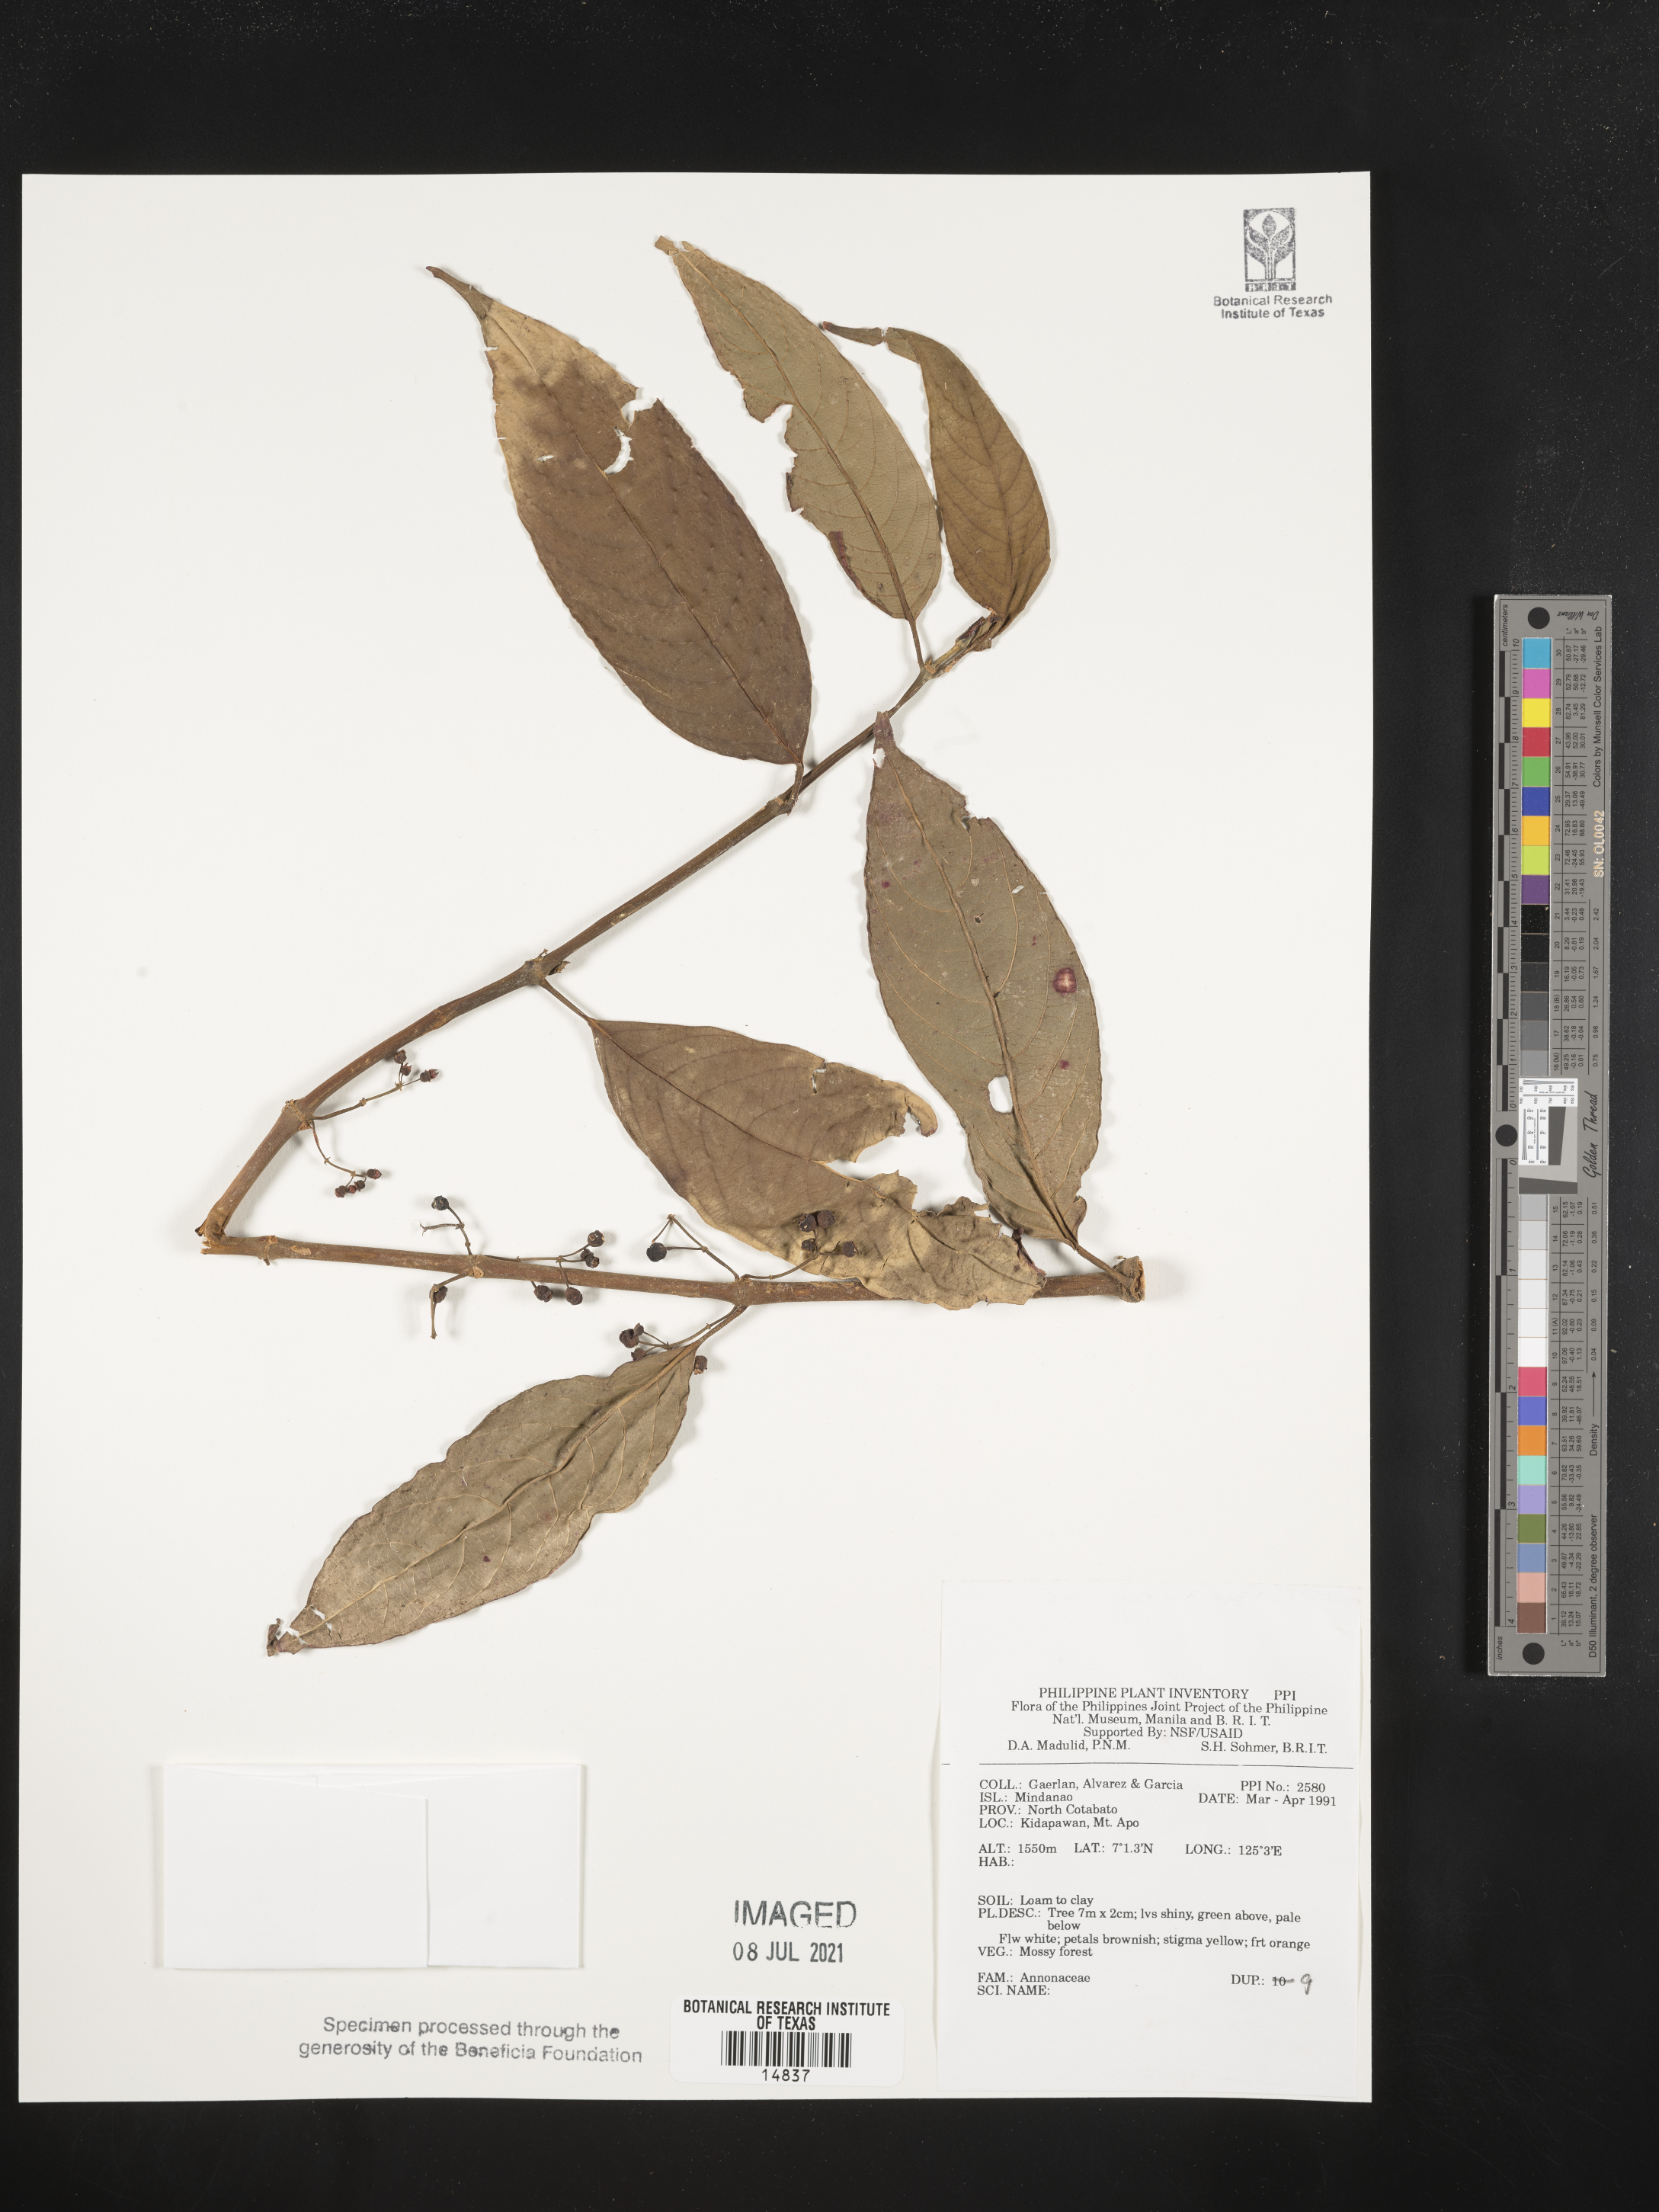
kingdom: Plantae
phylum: Tracheophyta
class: Magnoliopsida
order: Magnoliales
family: Annonaceae
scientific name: Annonaceae
